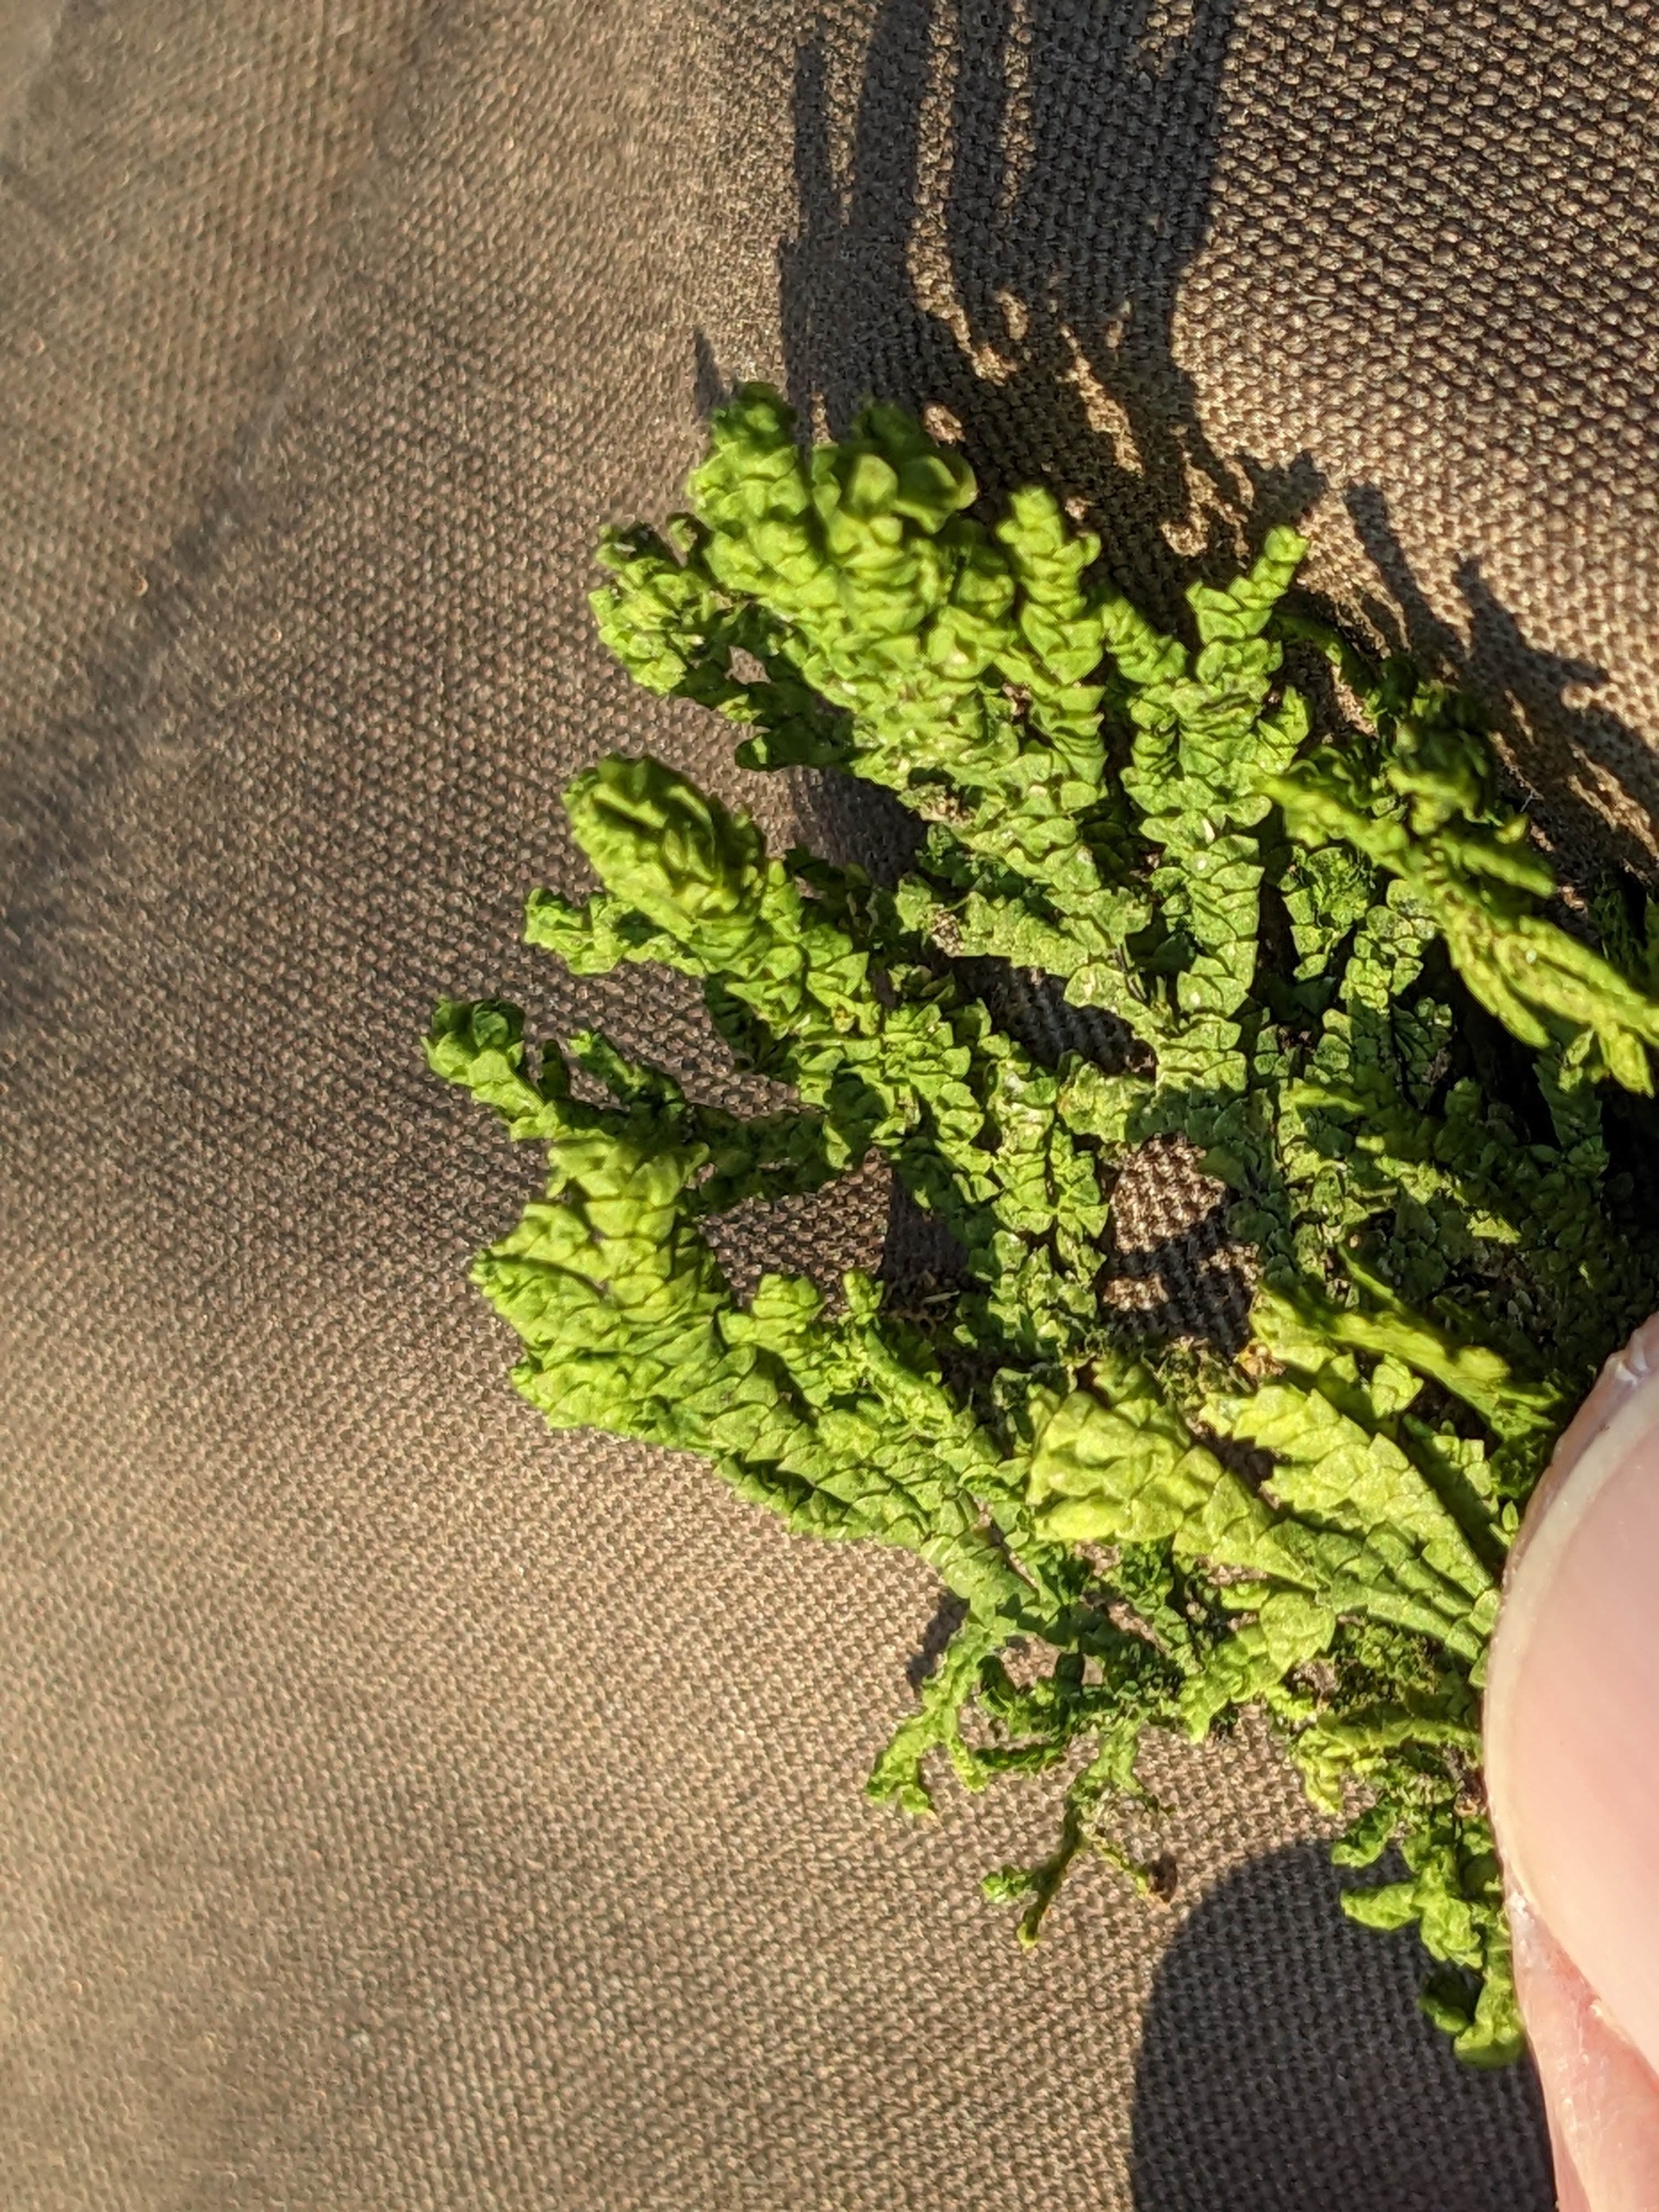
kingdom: Plantae
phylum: Marchantiophyta
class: Jungermanniopsida
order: Porellales
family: Porellaceae
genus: Porella
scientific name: Porella platyphylla
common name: Almindelig skælryg
